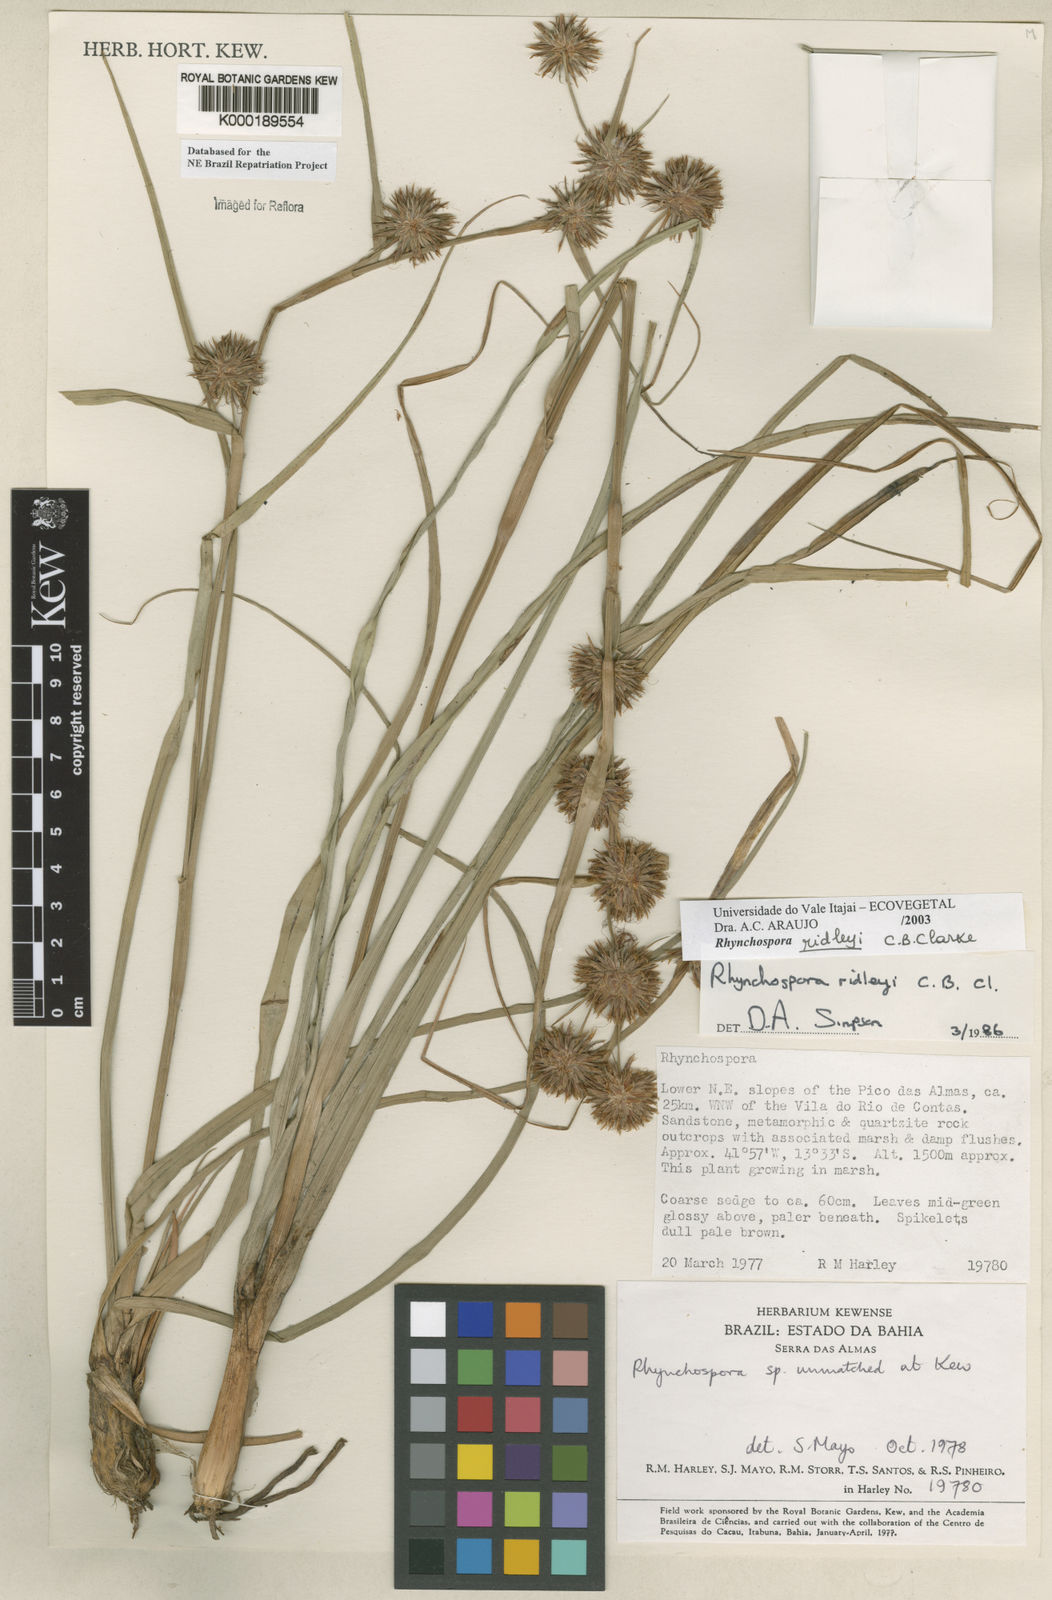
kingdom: Plantae
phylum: Tracheophyta
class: Liliopsida
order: Poales
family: Cyperaceae
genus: Rhynchospora
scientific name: Rhynchospora ridleyi
